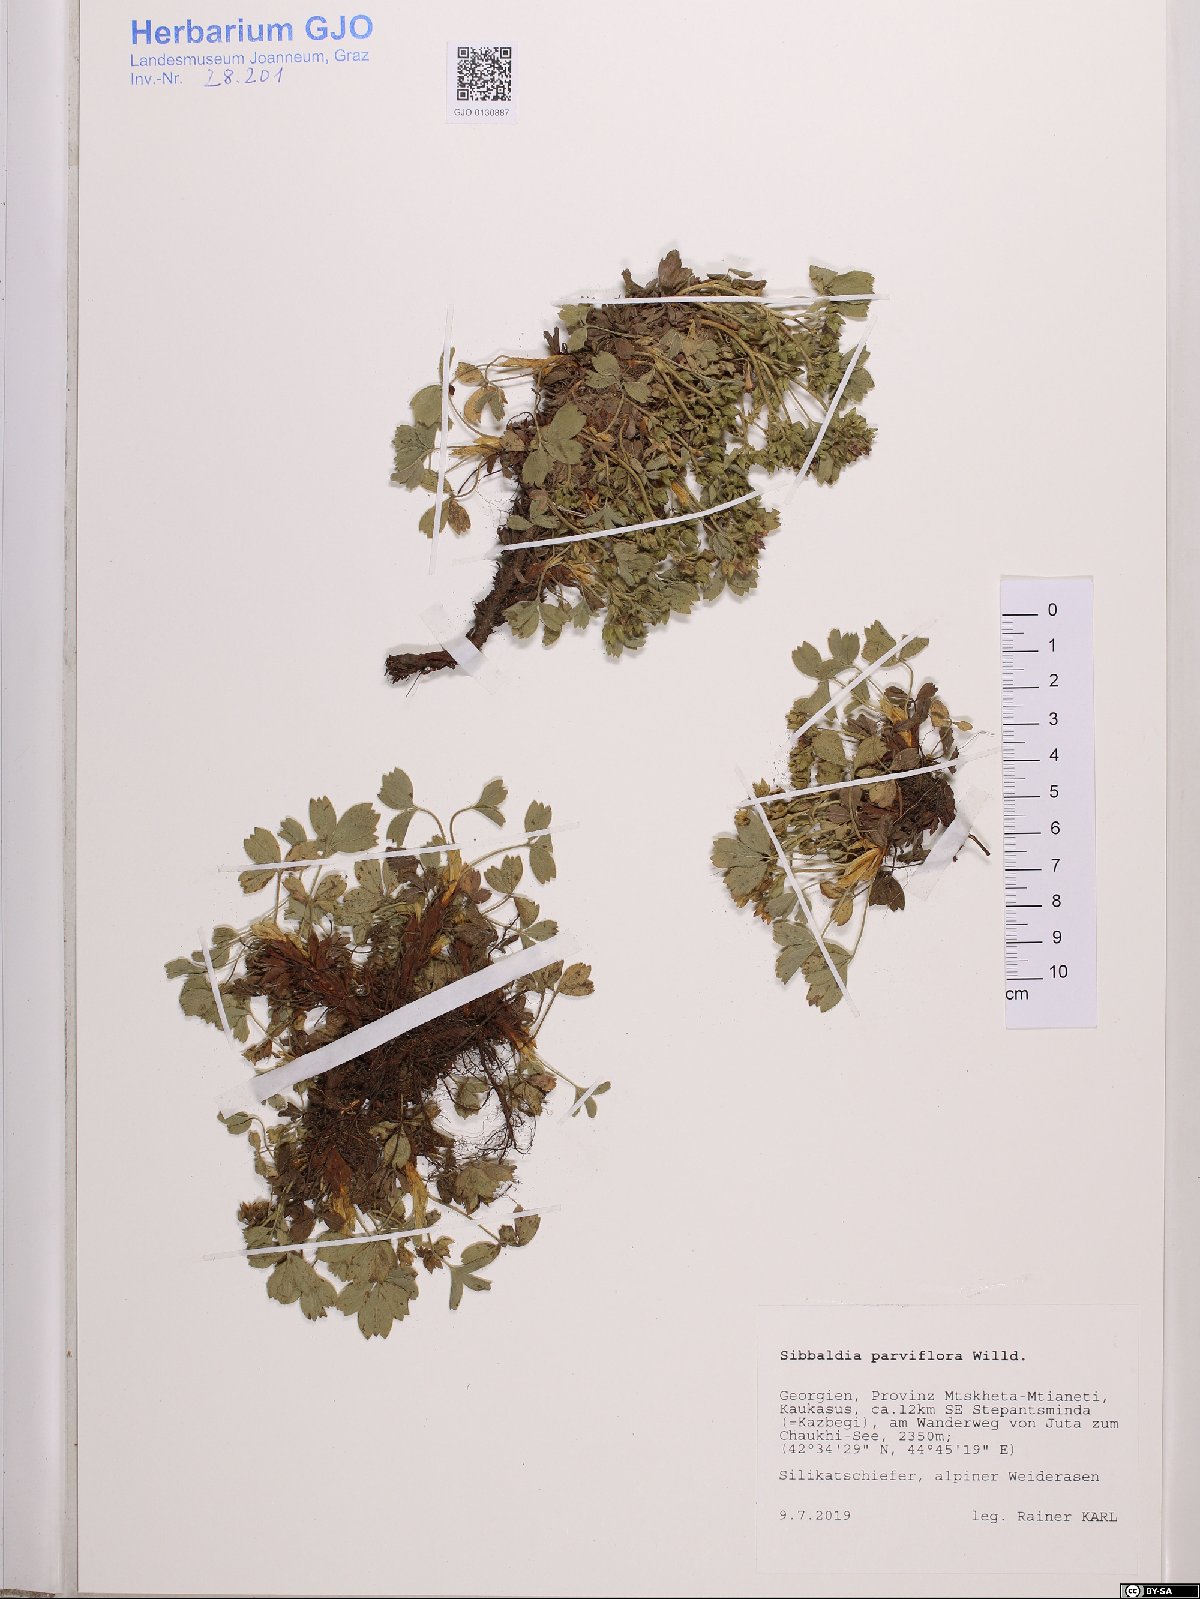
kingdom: Plantae
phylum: Tracheophyta
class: Magnoliopsida
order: Rosales
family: Rosaceae
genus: Sibbaldia
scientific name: Sibbaldia parviflora
